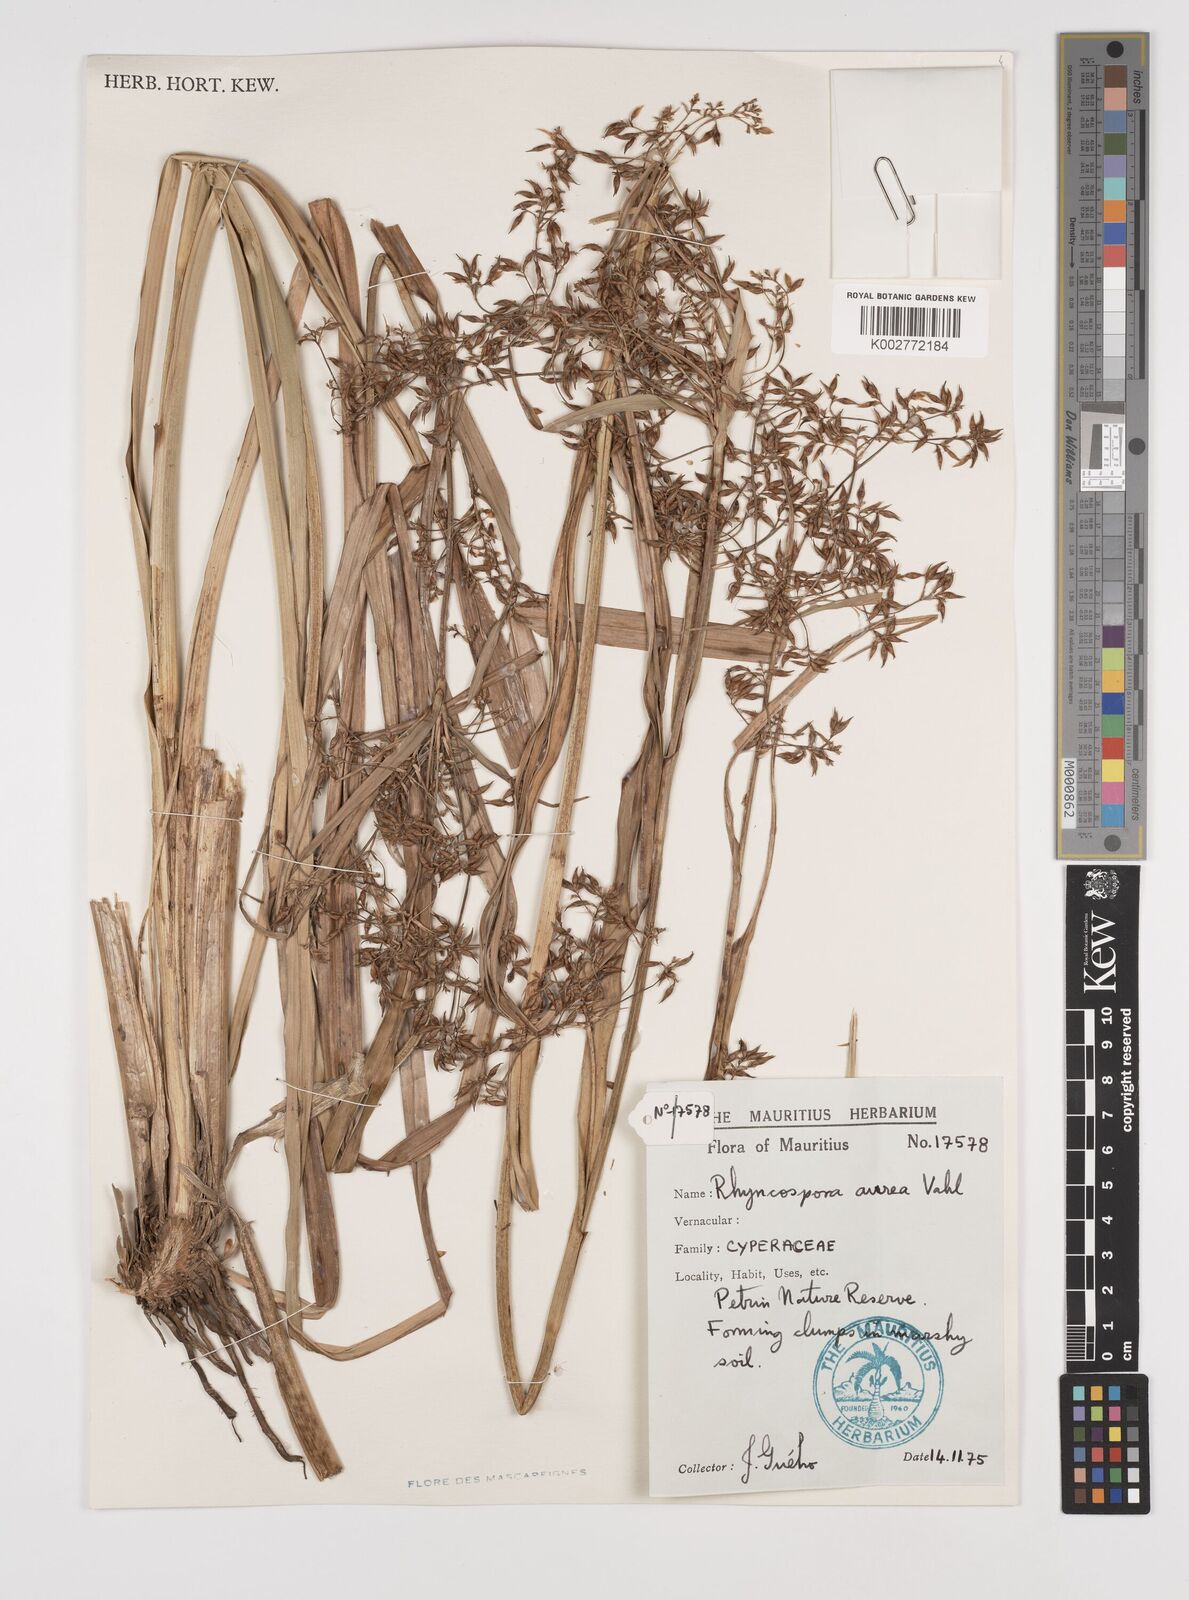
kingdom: Plantae
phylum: Tracheophyta
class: Liliopsida
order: Poales
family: Cyperaceae
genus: Rhynchospora
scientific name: Rhynchospora corymbosa
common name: Golden beak sedge
